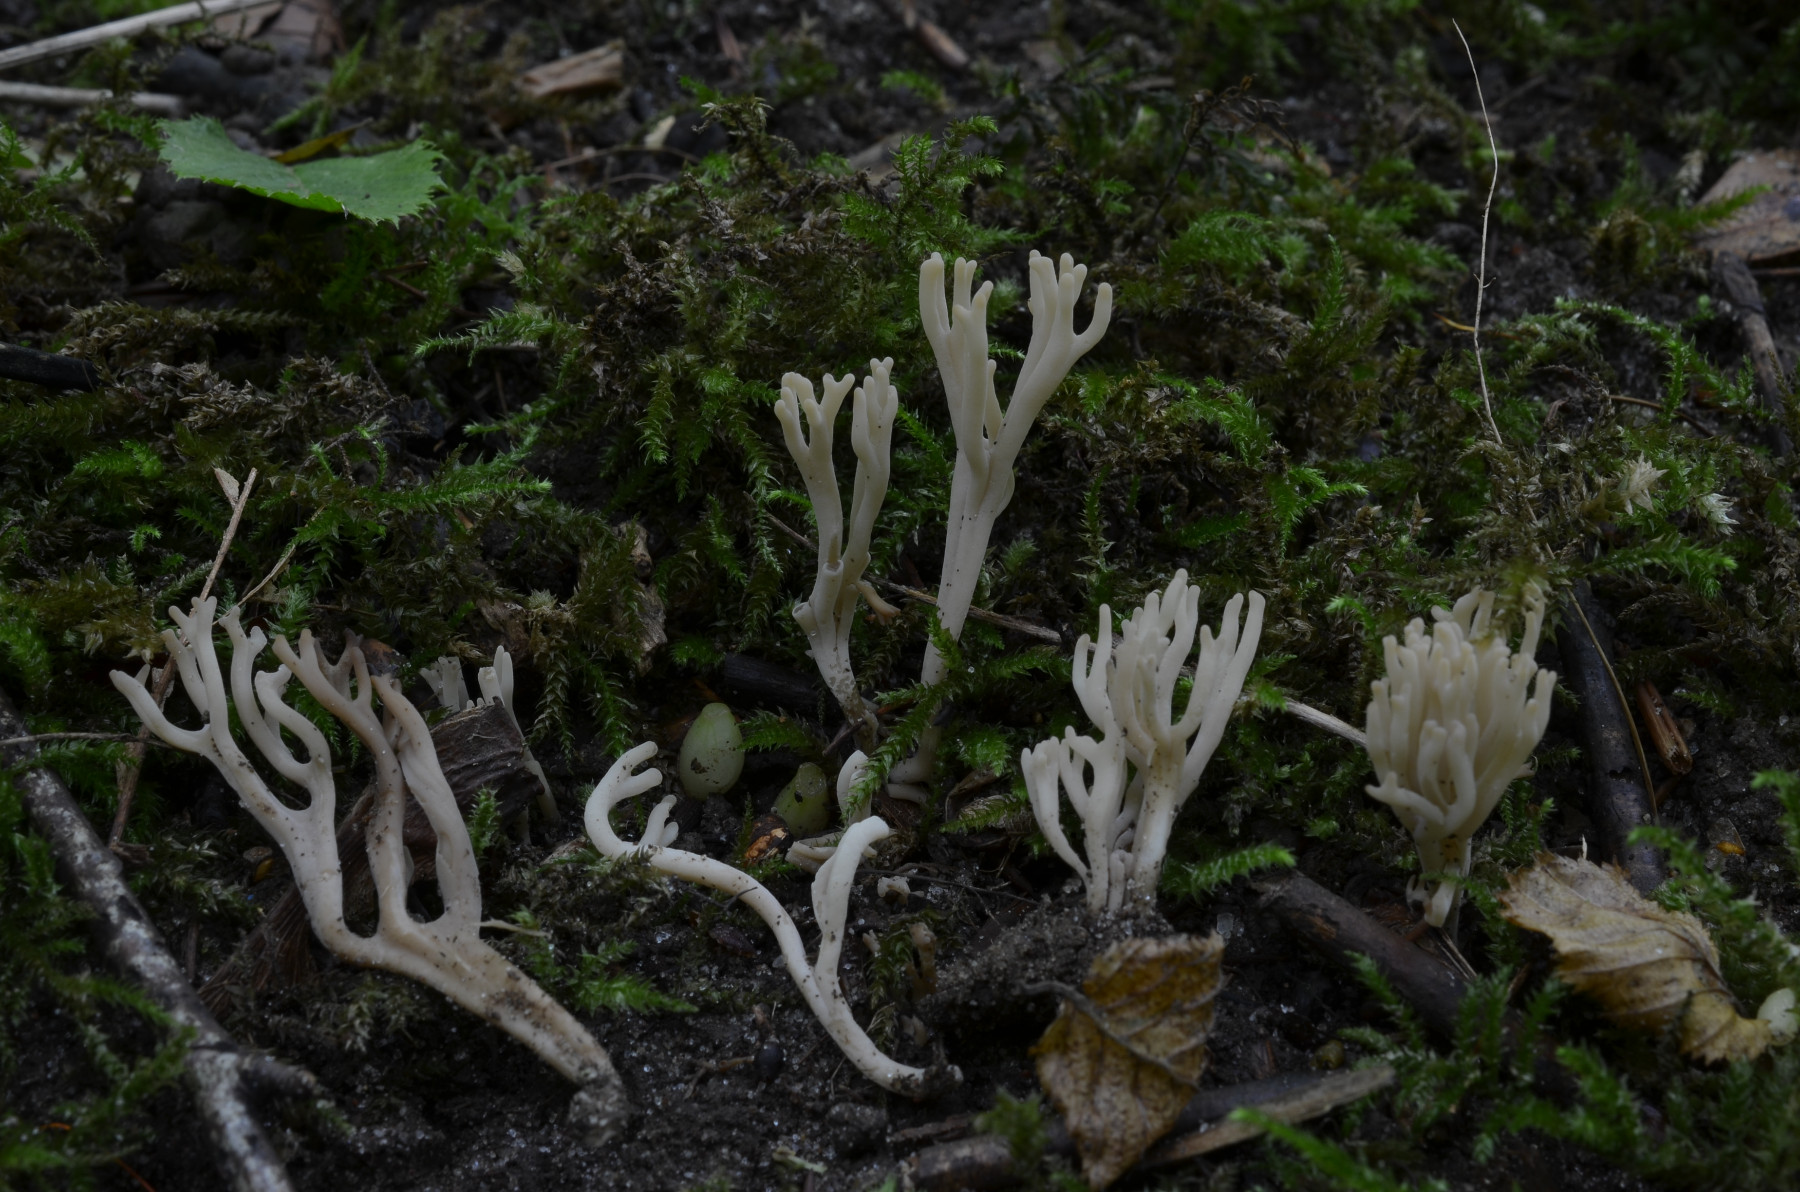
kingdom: Fungi
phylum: Basidiomycota
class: Agaricomycetes
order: Agaricales
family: Clavariaceae
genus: Clavulinopsis
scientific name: Clavulinopsis umbrinella
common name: gulgrå køllesvamp
